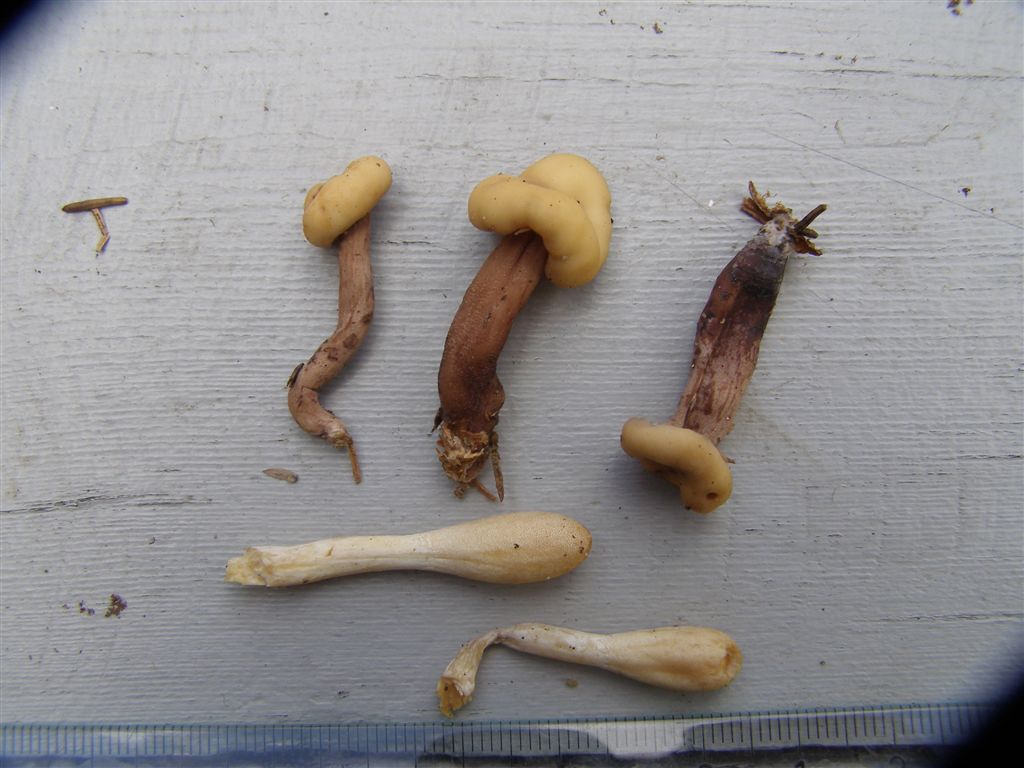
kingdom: Fungi
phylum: Ascomycota
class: Leotiomycetes
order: Rhytismatales
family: Cudoniaceae
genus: Cudonia
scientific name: Cudonia circinans
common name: hekserings-hjelmmorkel
